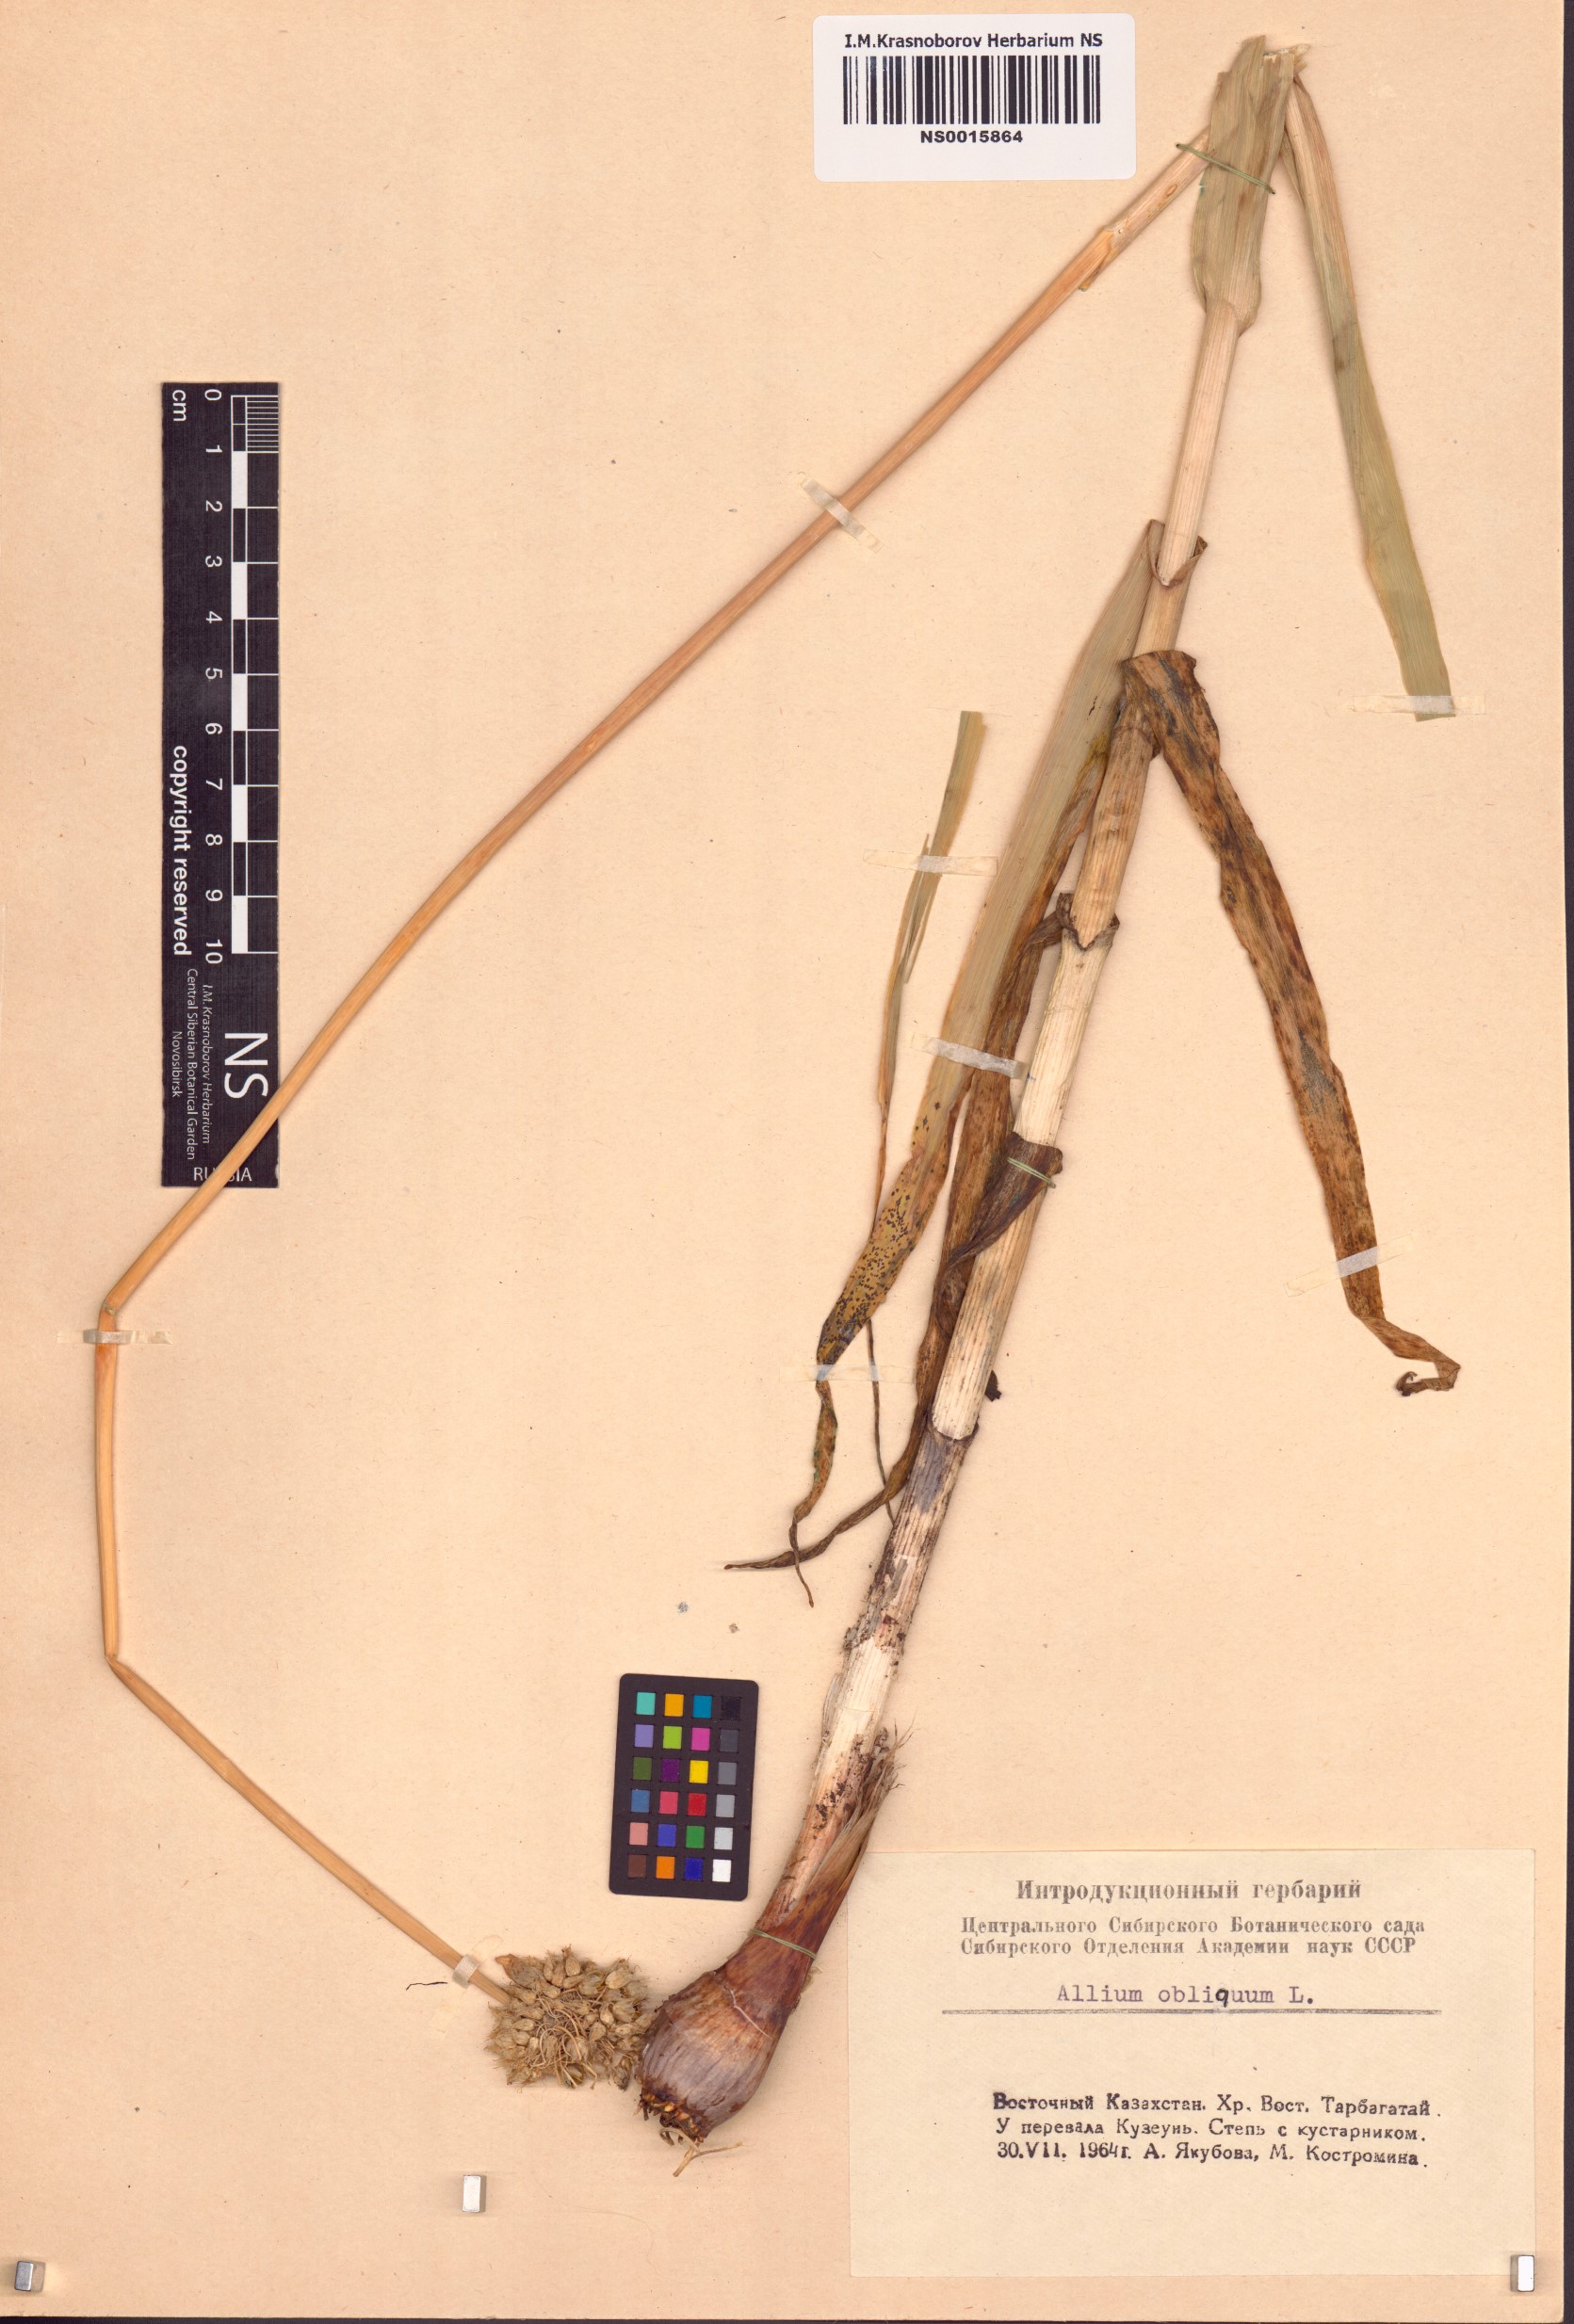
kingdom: Plantae
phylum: Tracheophyta
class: Liliopsida
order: Asparagales
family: Amaryllidaceae
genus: Allium
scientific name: Allium obliquum
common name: Oblique onion
